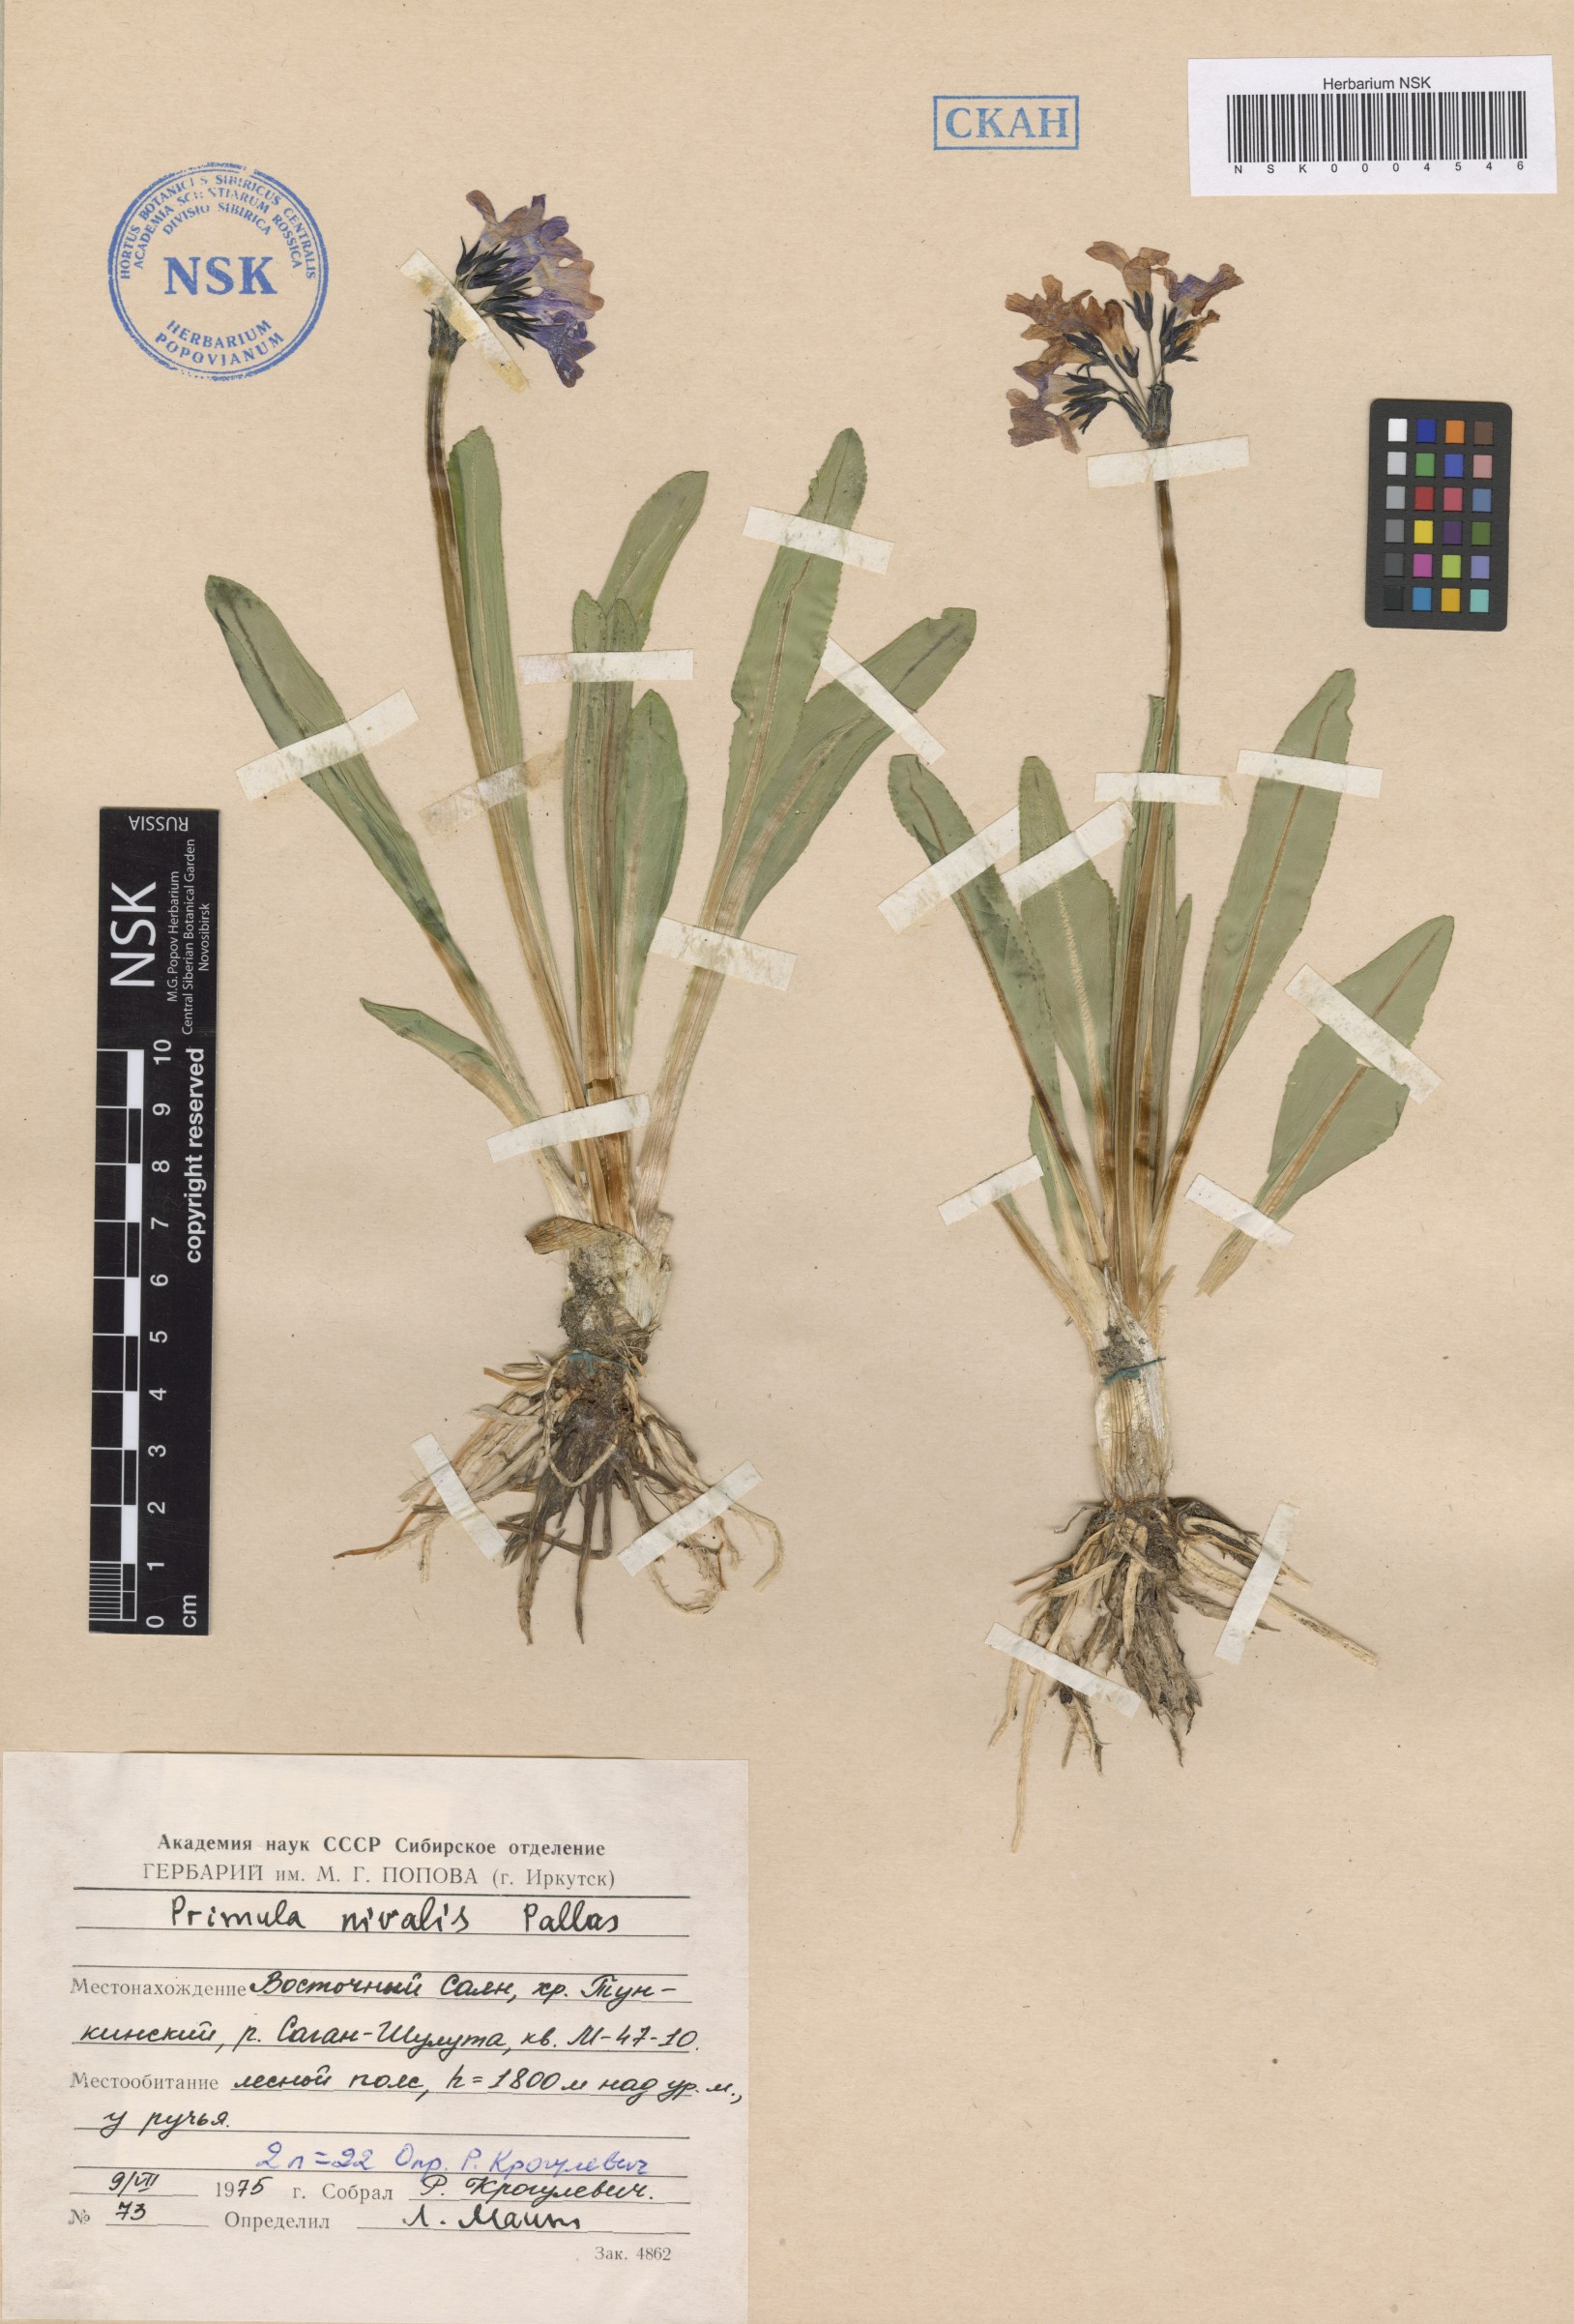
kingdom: Plantae
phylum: Tracheophyta
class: Magnoliopsida
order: Ericales
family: Primulaceae
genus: Primula
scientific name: Primula nivalis
